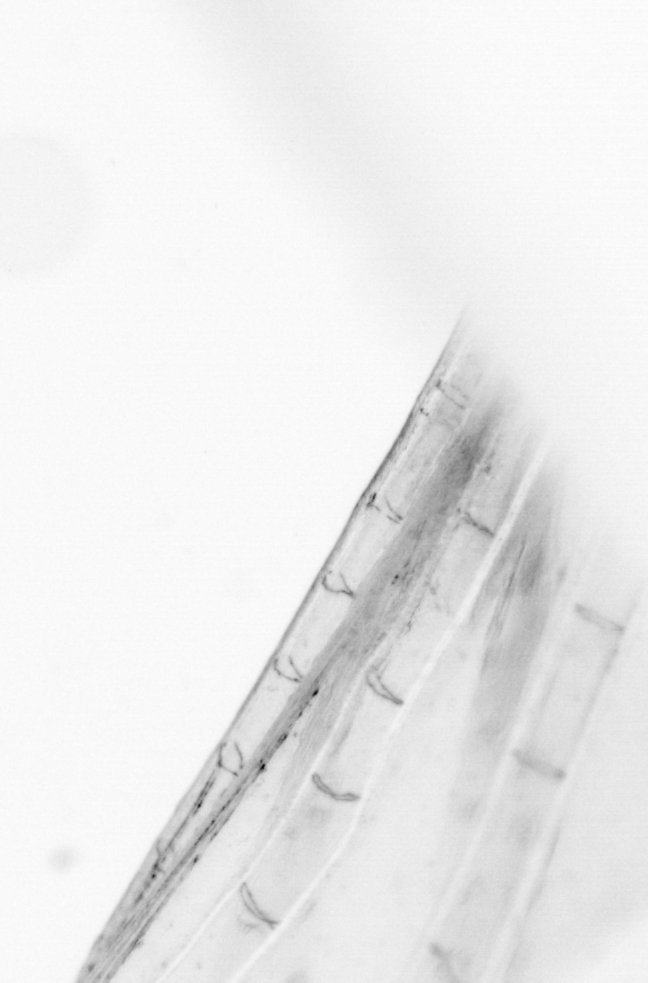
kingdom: Animalia
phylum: Chordata
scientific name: Chordata
